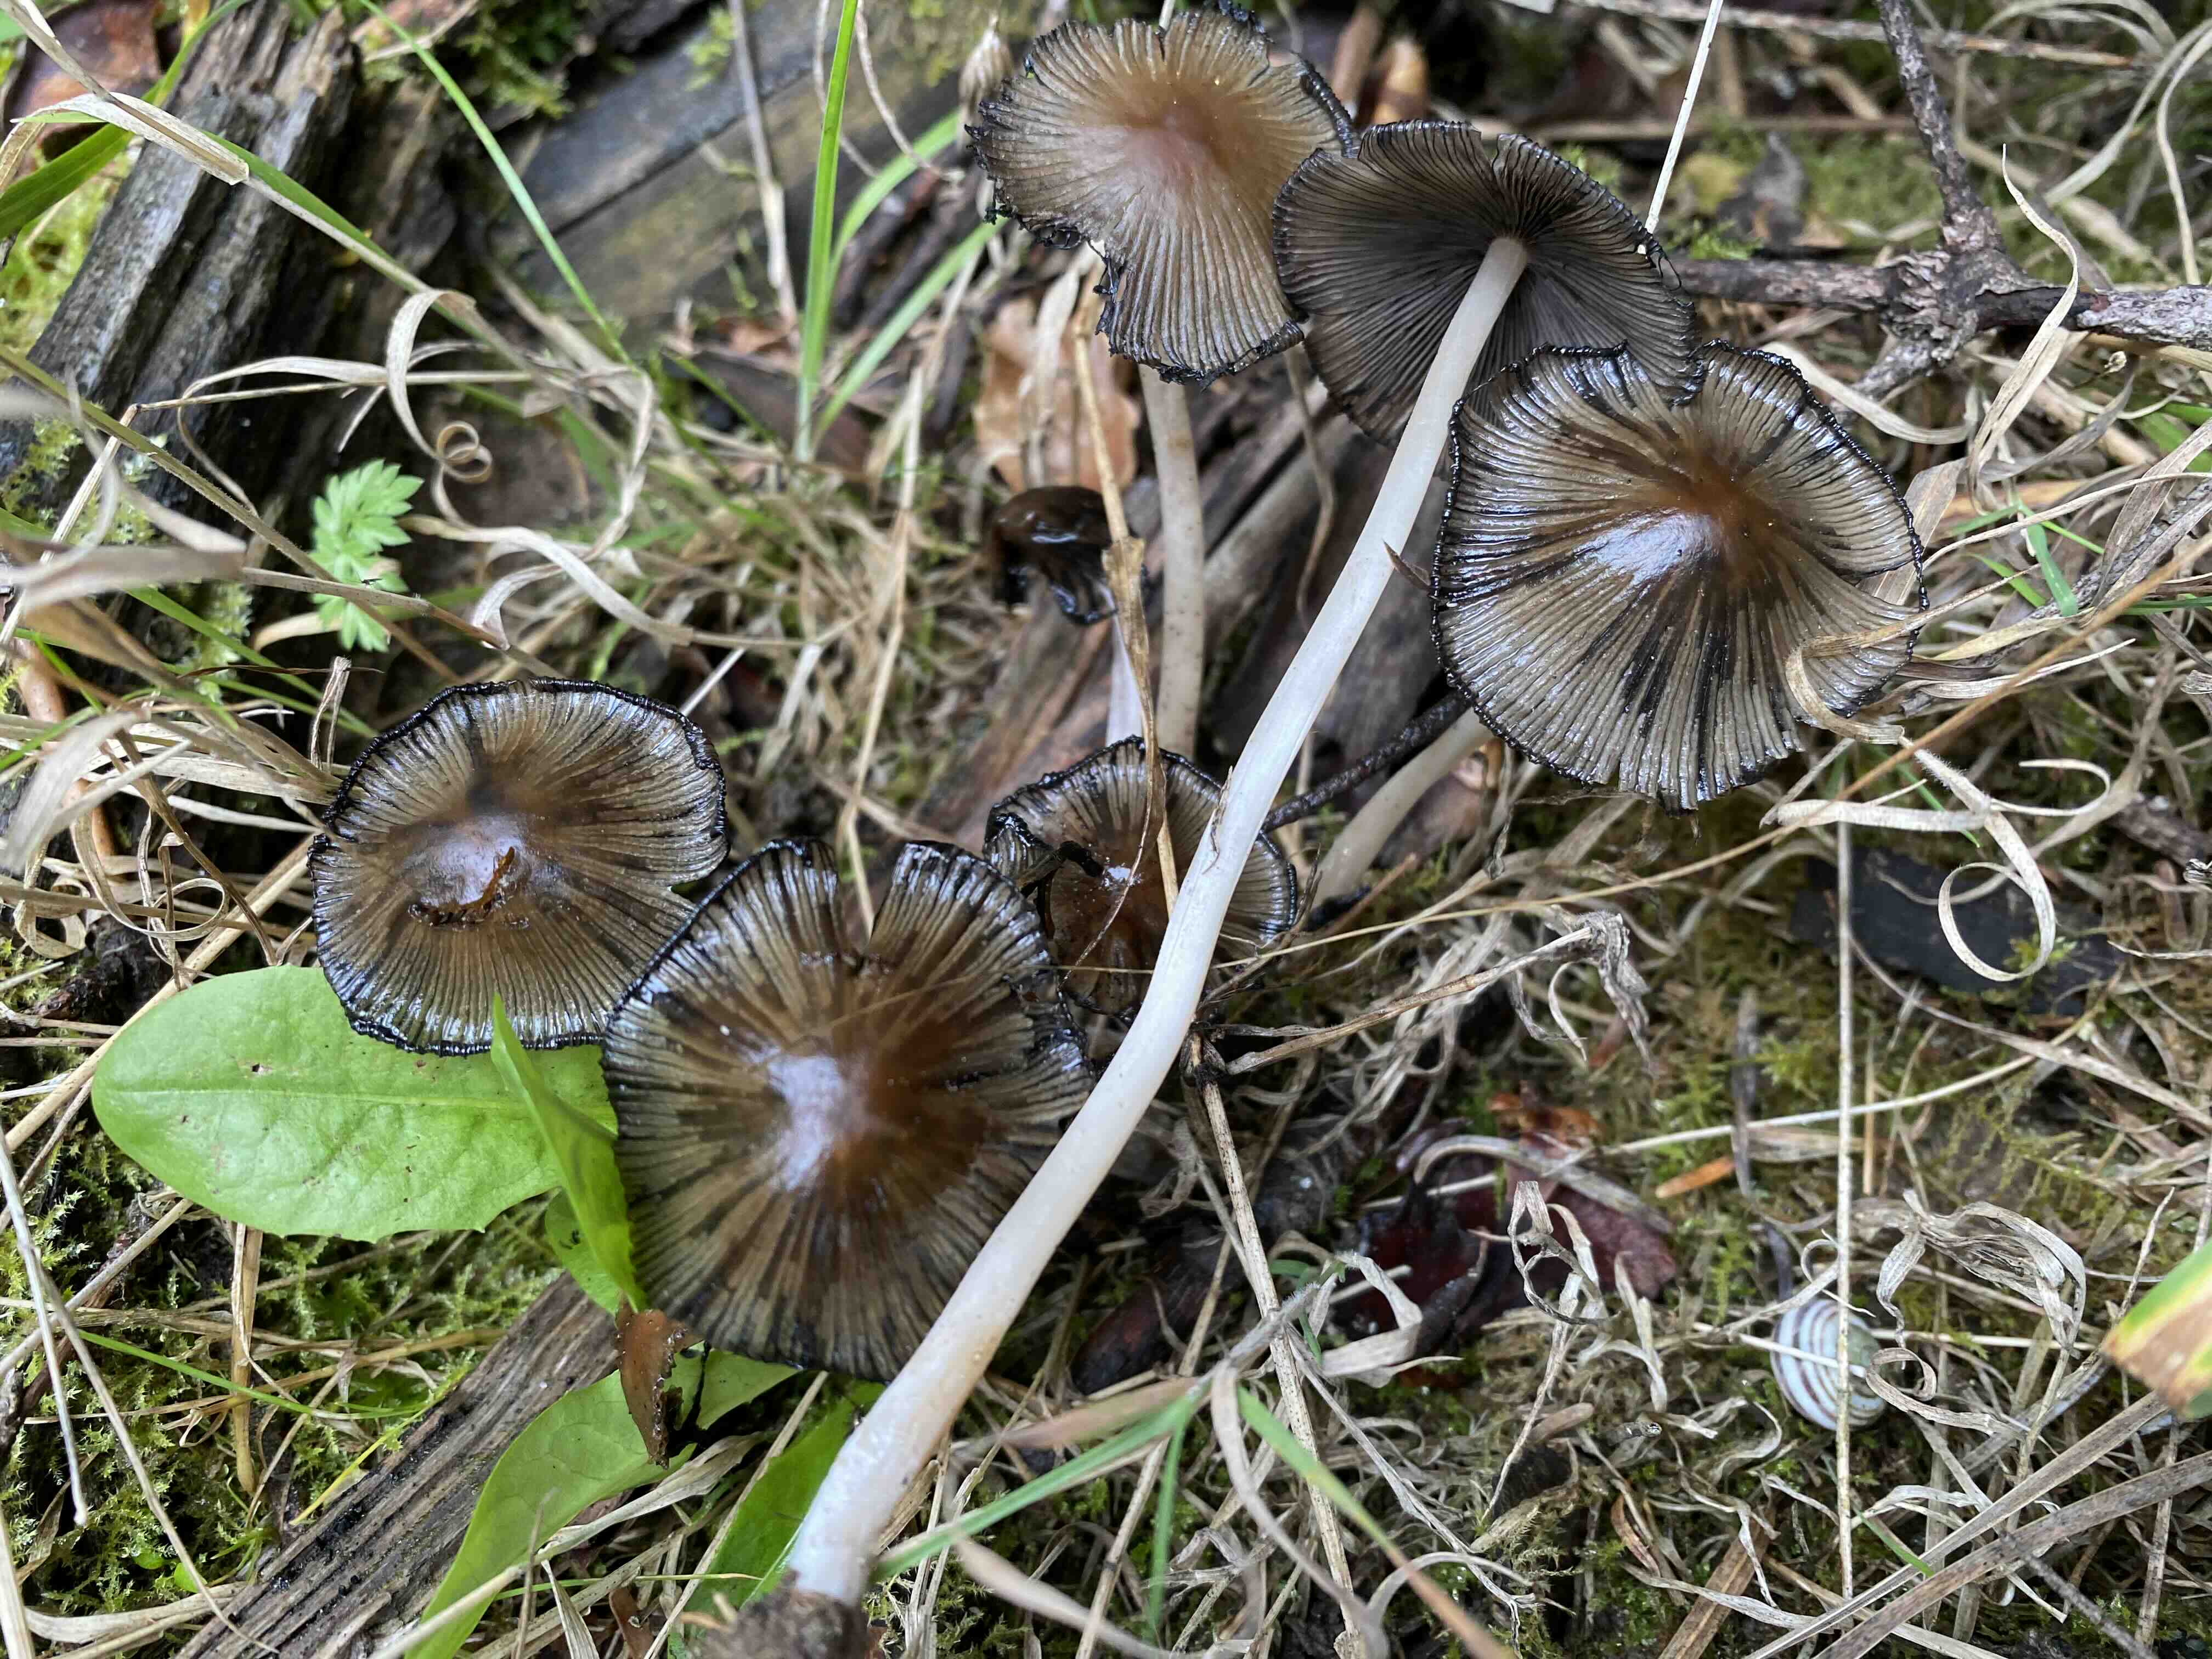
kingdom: Fungi
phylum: Basidiomycota
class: Agaricomycetes
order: Agaricales
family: Psathyrellaceae
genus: Coprinellus
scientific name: Coprinellus
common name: blækhat
